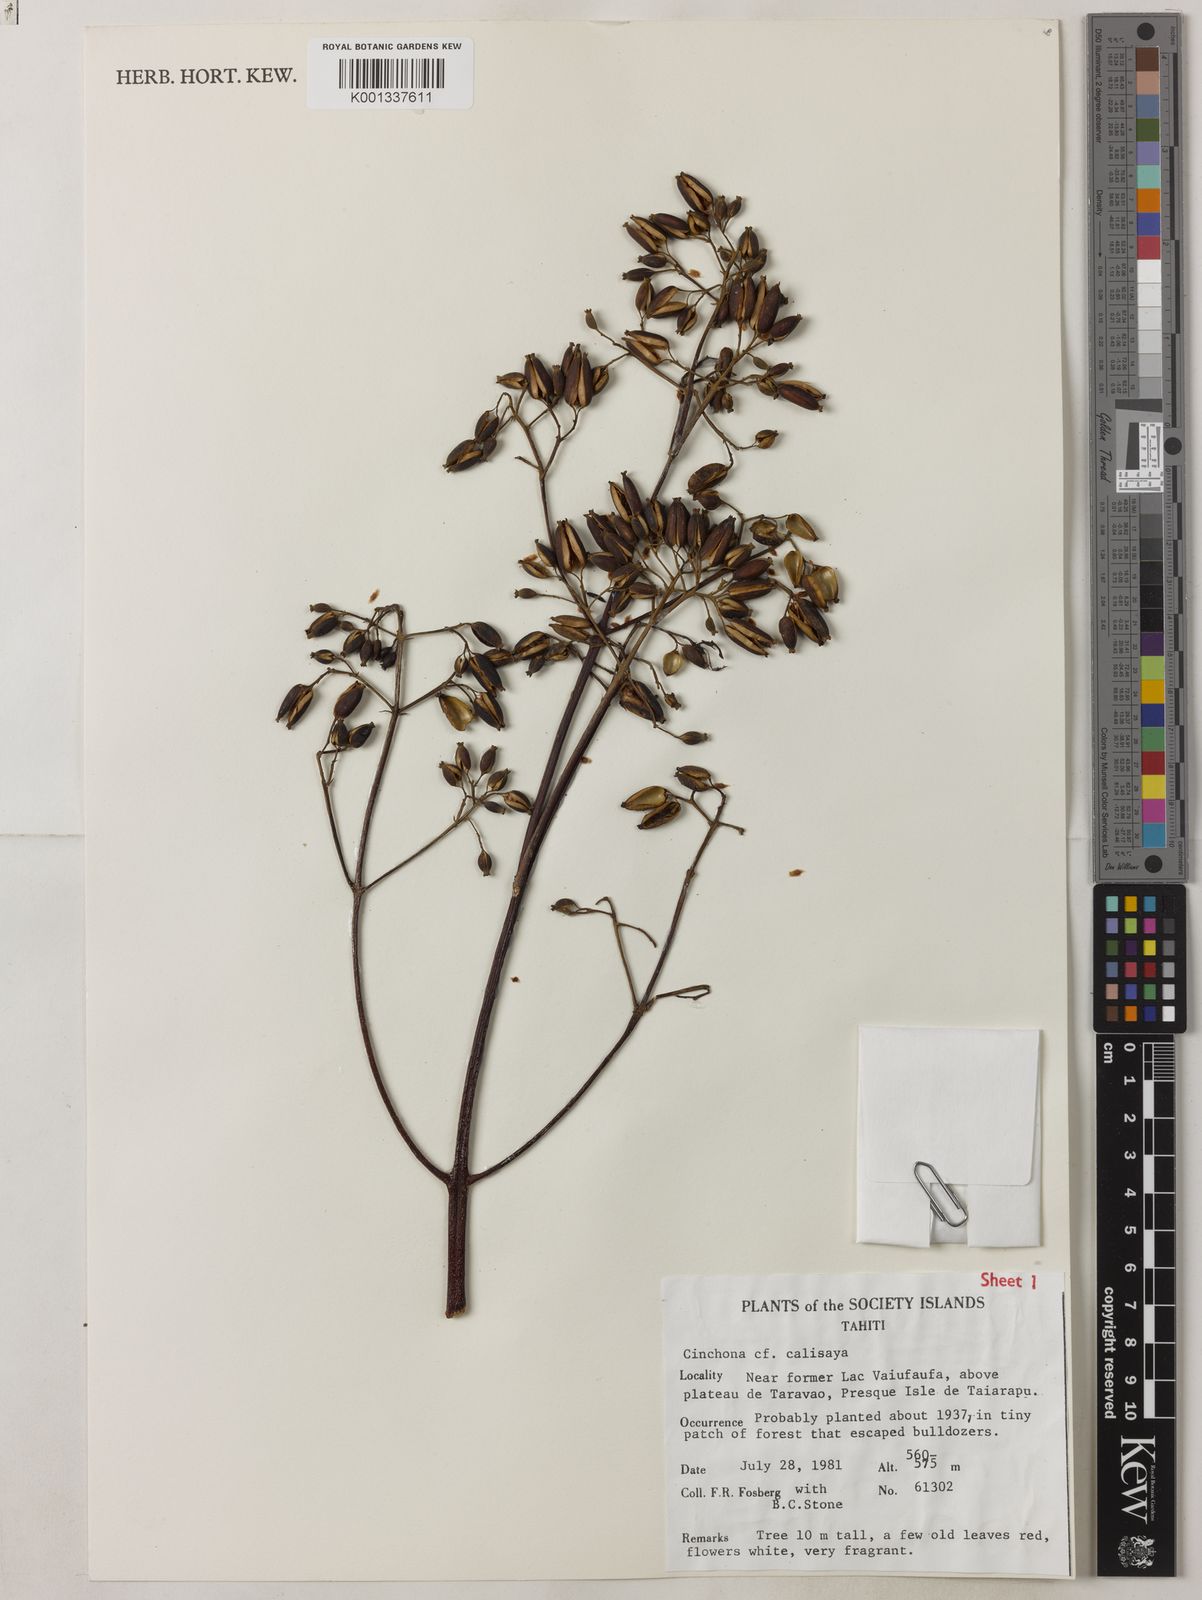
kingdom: Plantae
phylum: Tracheophyta
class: Magnoliopsida
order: Gentianales
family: Rubiaceae
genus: Cinchona
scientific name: Cinchona calisaya
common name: Ledgerbark
